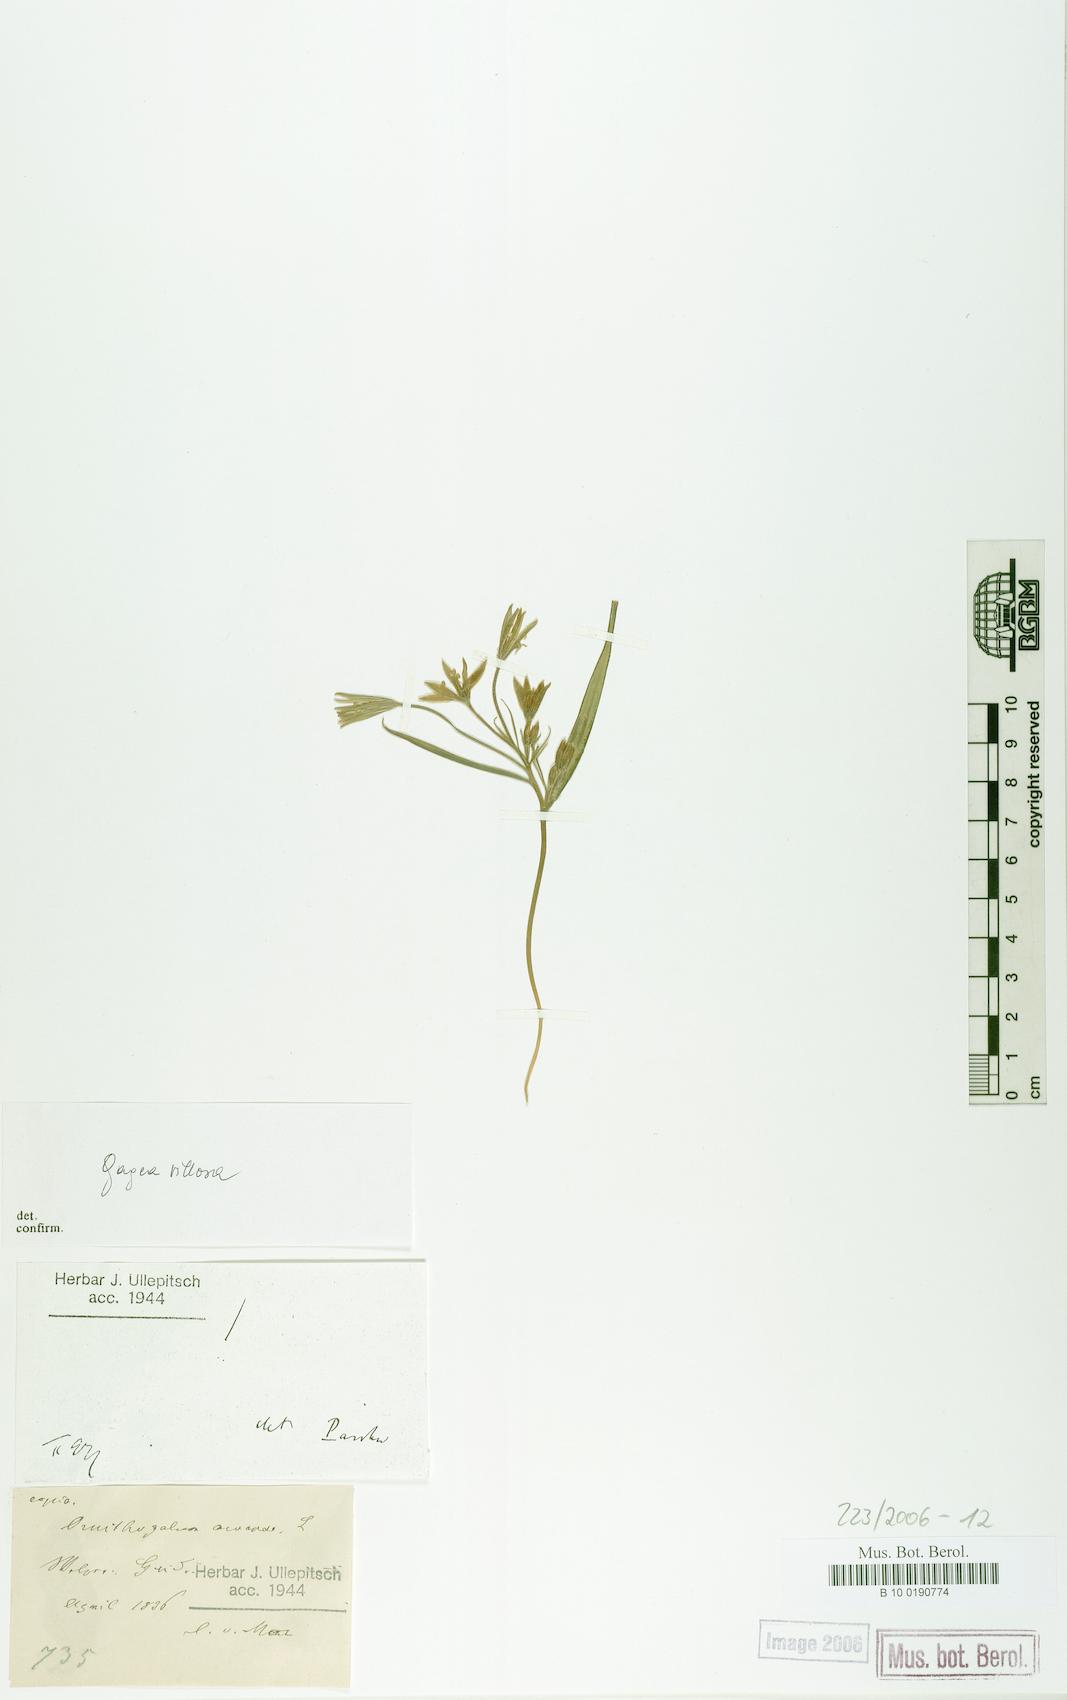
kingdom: Plantae
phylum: Tracheophyta
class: Liliopsida
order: Liliales
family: Liliaceae
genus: Gagea
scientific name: Gagea villosa
